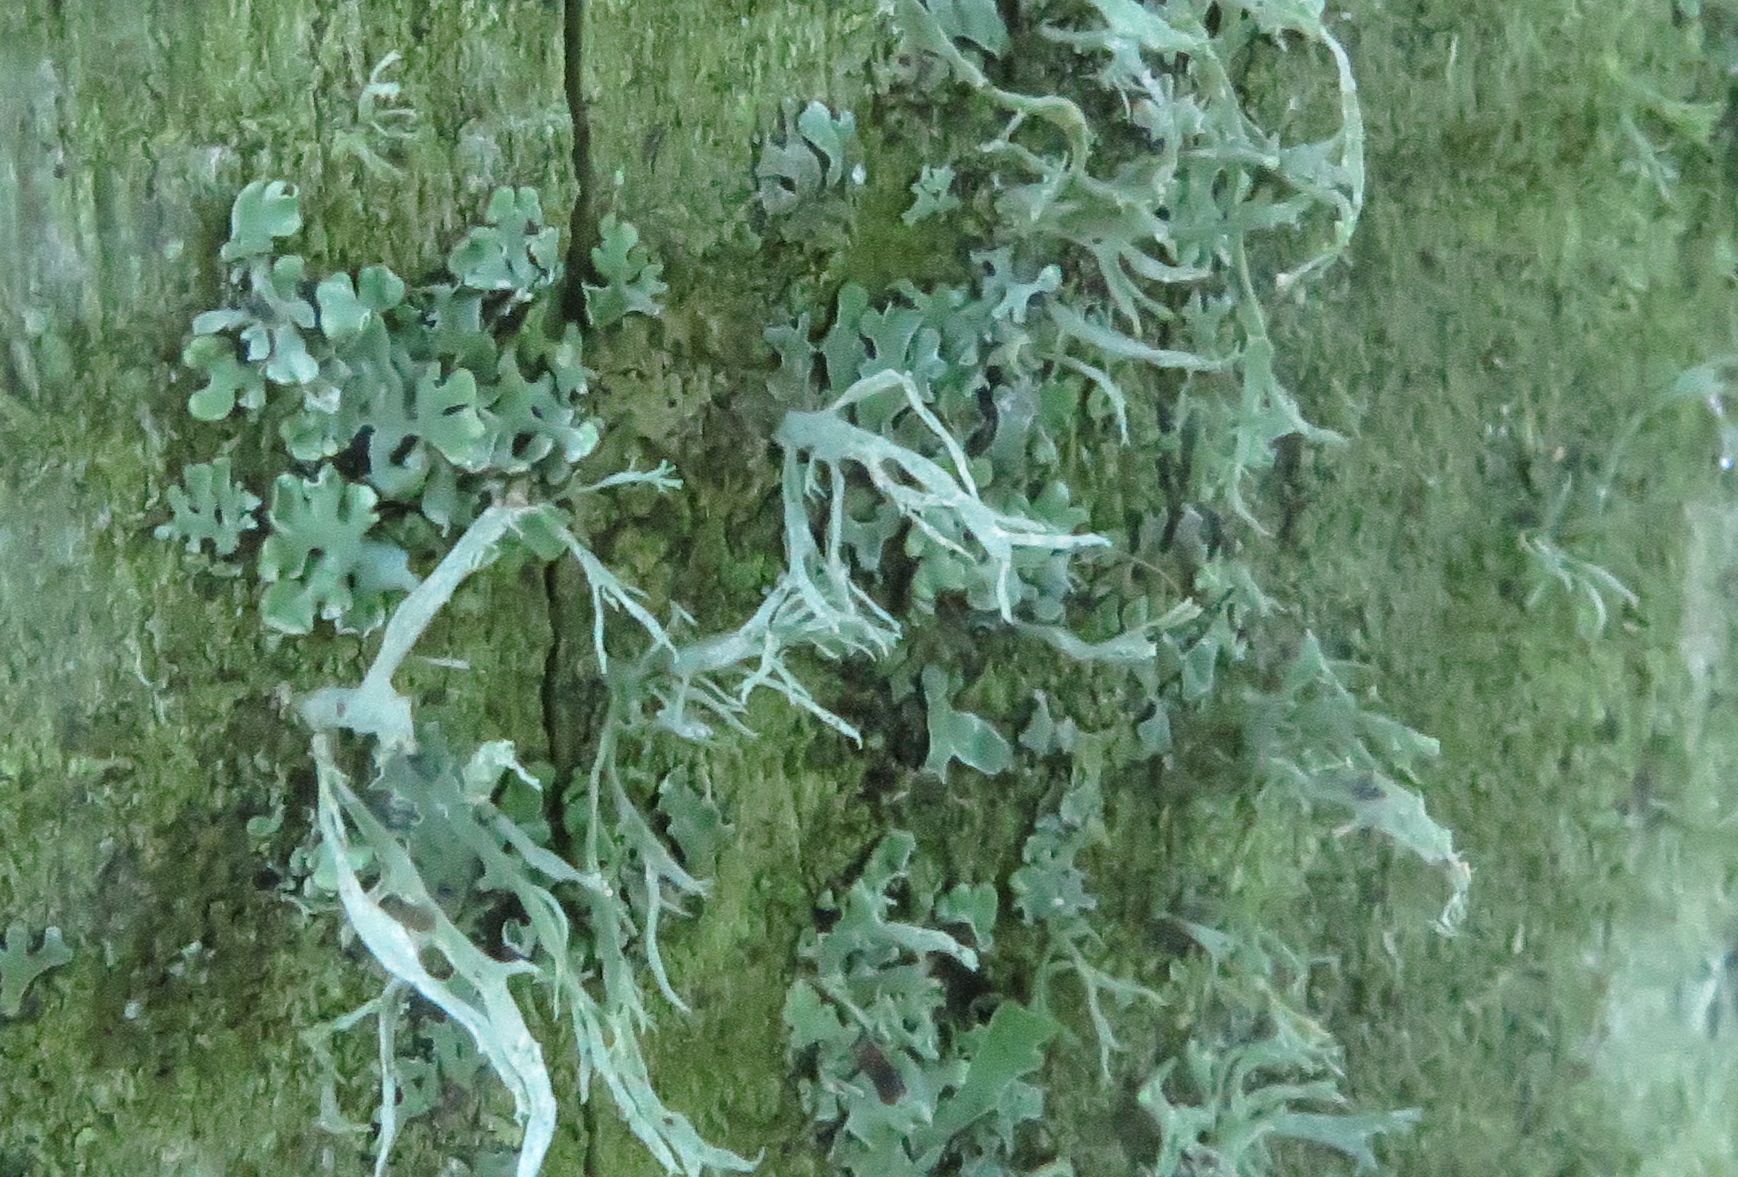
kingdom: Fungi
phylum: Ascomycota
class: Lecanoromycetes
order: Lecanorales
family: Parmeliaceae
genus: Evernia
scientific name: Evernia prunastri
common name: almindelig slåenlav
